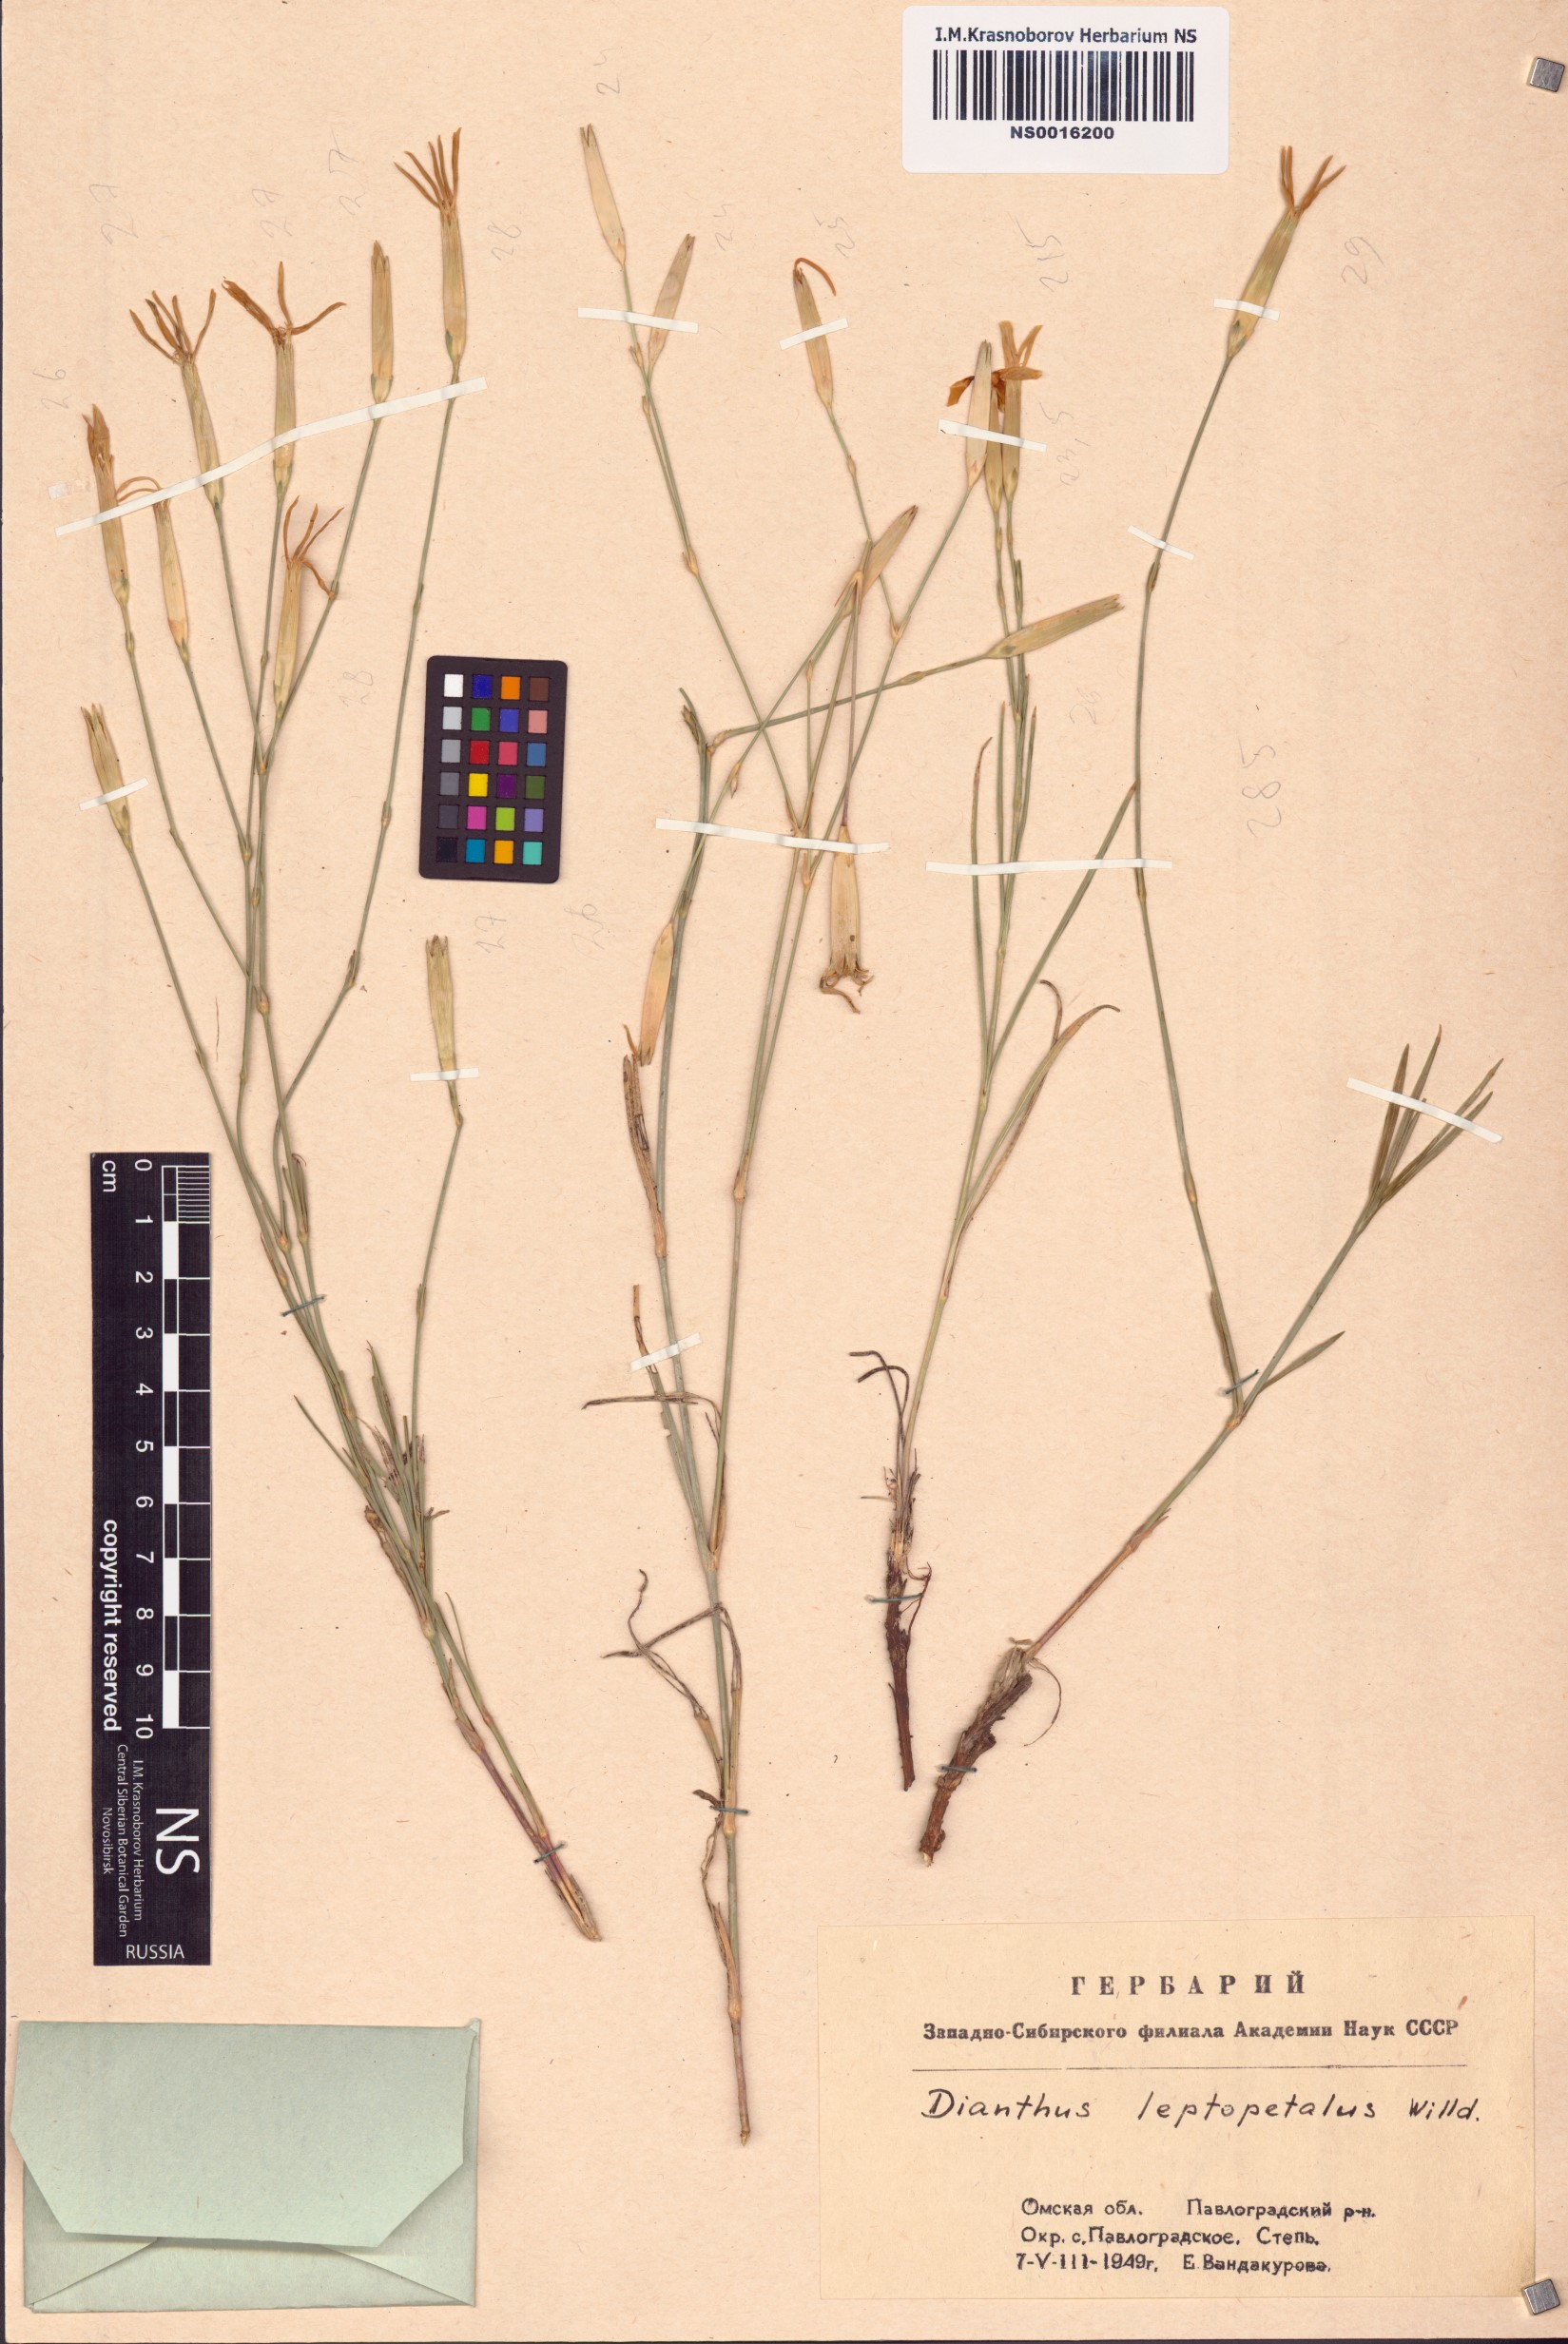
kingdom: Plantae
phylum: Tracheophyta
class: Magnoliopsida
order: Caryophyllales
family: Caryophyllaceae
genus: Dianthus
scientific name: Dianthus leptopetalus
